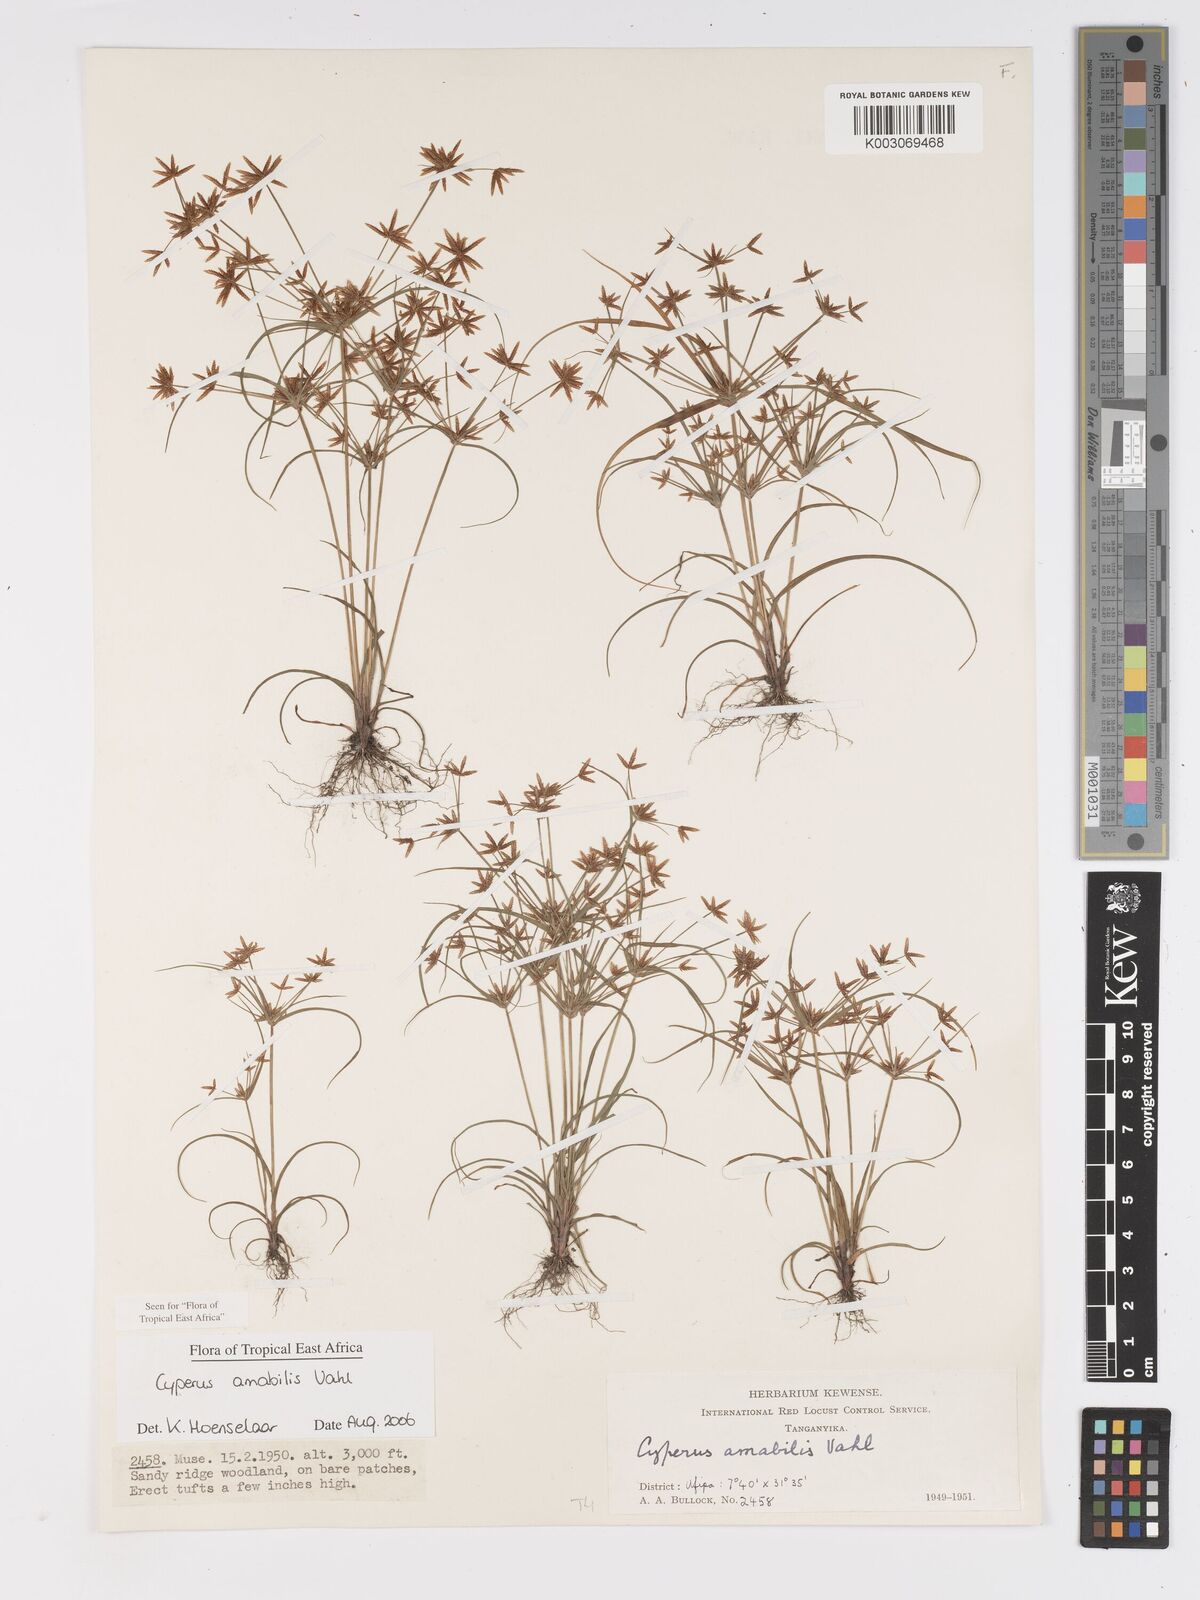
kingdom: Plantae
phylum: Tracheophyta
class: Liliopsida
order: Poales
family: Cyperaceae
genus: Cyperus
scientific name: Cyperus amabilis
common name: Foothill flat sedge
